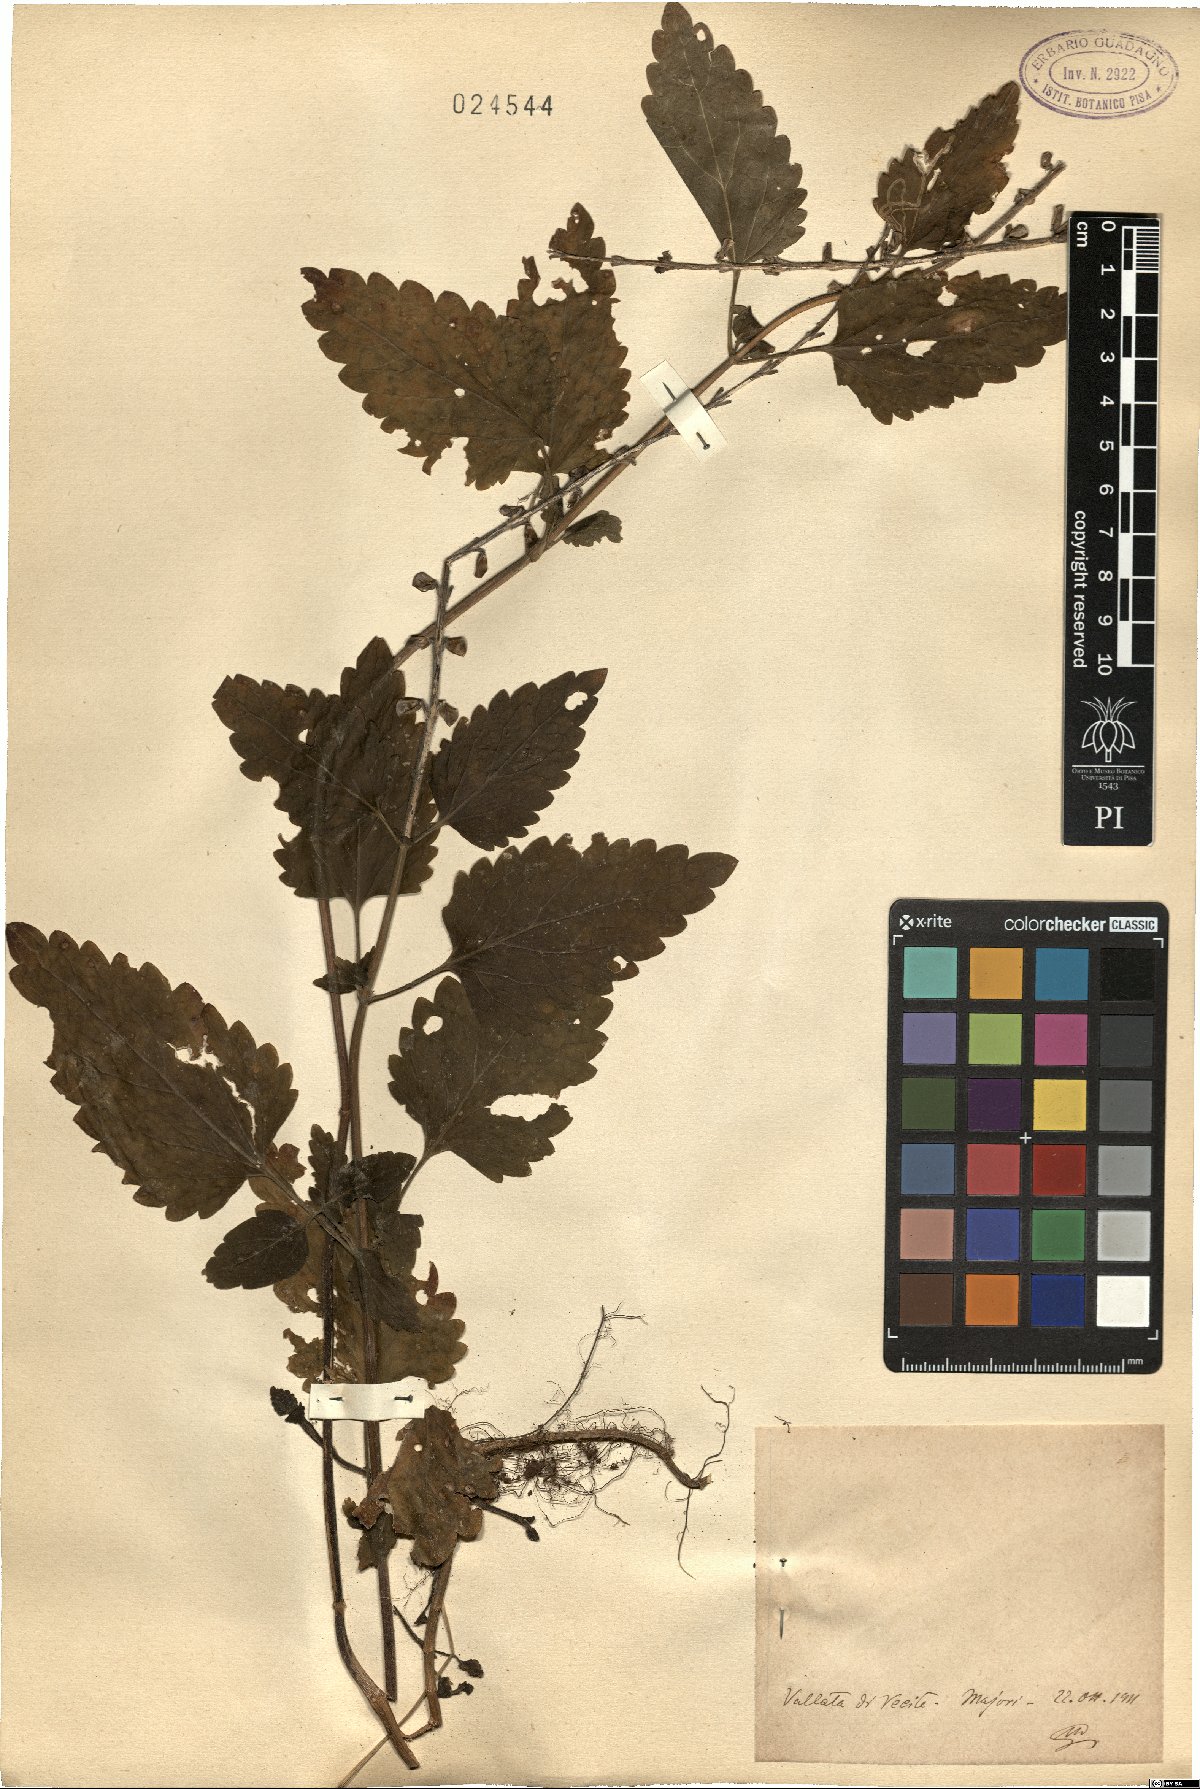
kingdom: Plantae
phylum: Tracheophyta
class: Magnoliopsida
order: Lamiales
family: Lamiaceae
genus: Scutellaria
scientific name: Scutellaria
